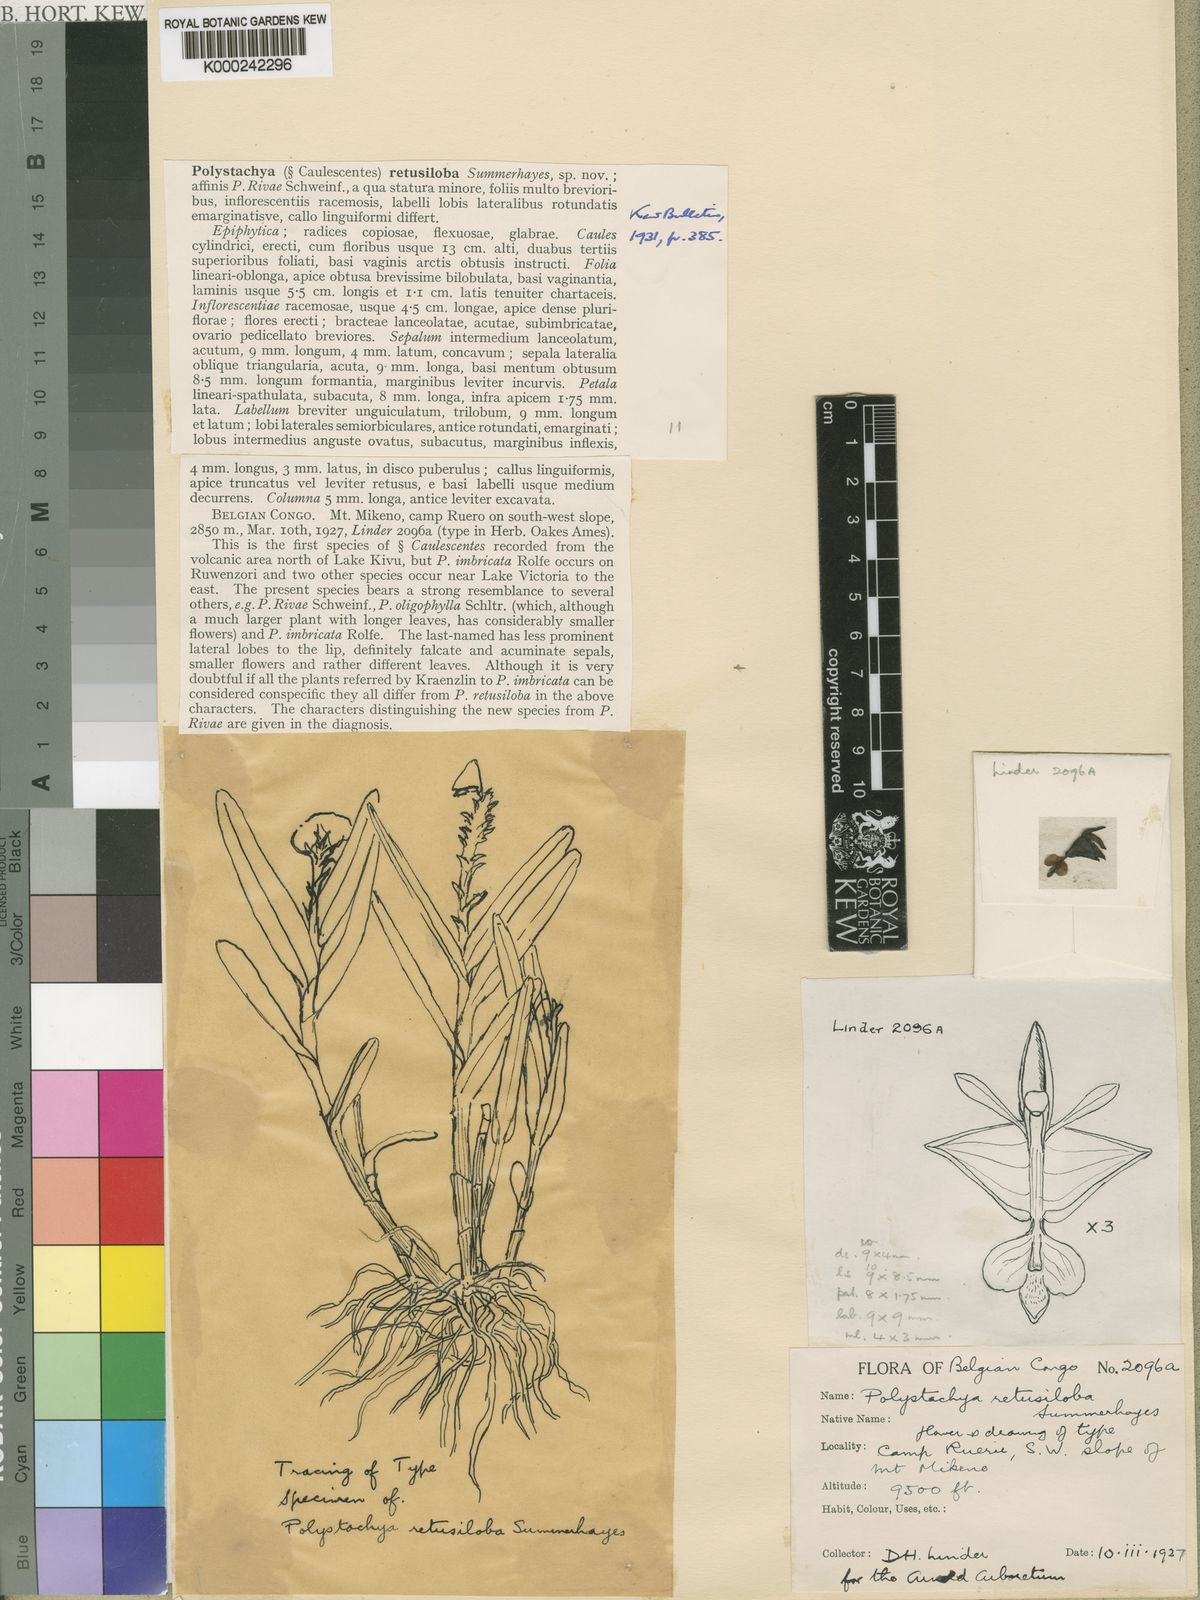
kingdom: Plantae
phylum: Tracheophyta
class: Liliopsida
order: Asparagales
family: Orchidaceae
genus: Polystachya
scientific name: Polystachya retusiloba
